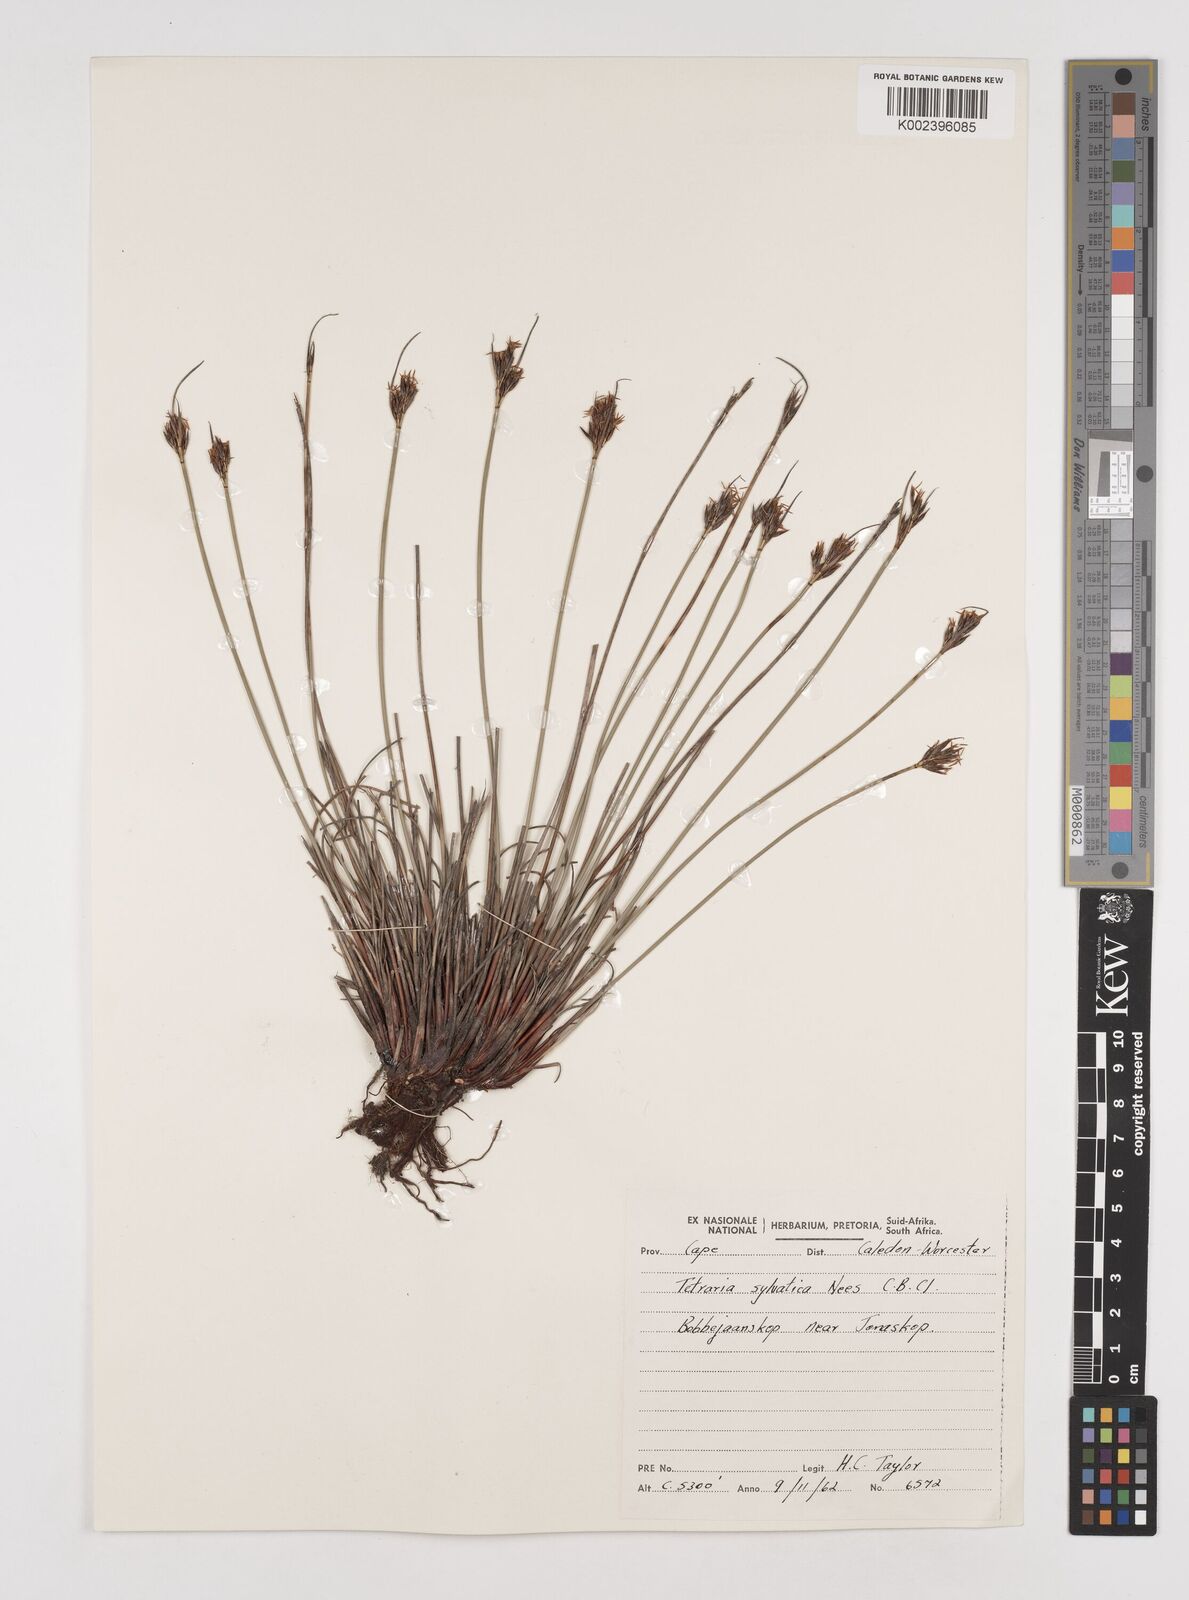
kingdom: Plantae
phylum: Tracheophyta
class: Liliopsida
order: Poales
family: Cyperaceae
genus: Schoenus
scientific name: Schoenus auritus
